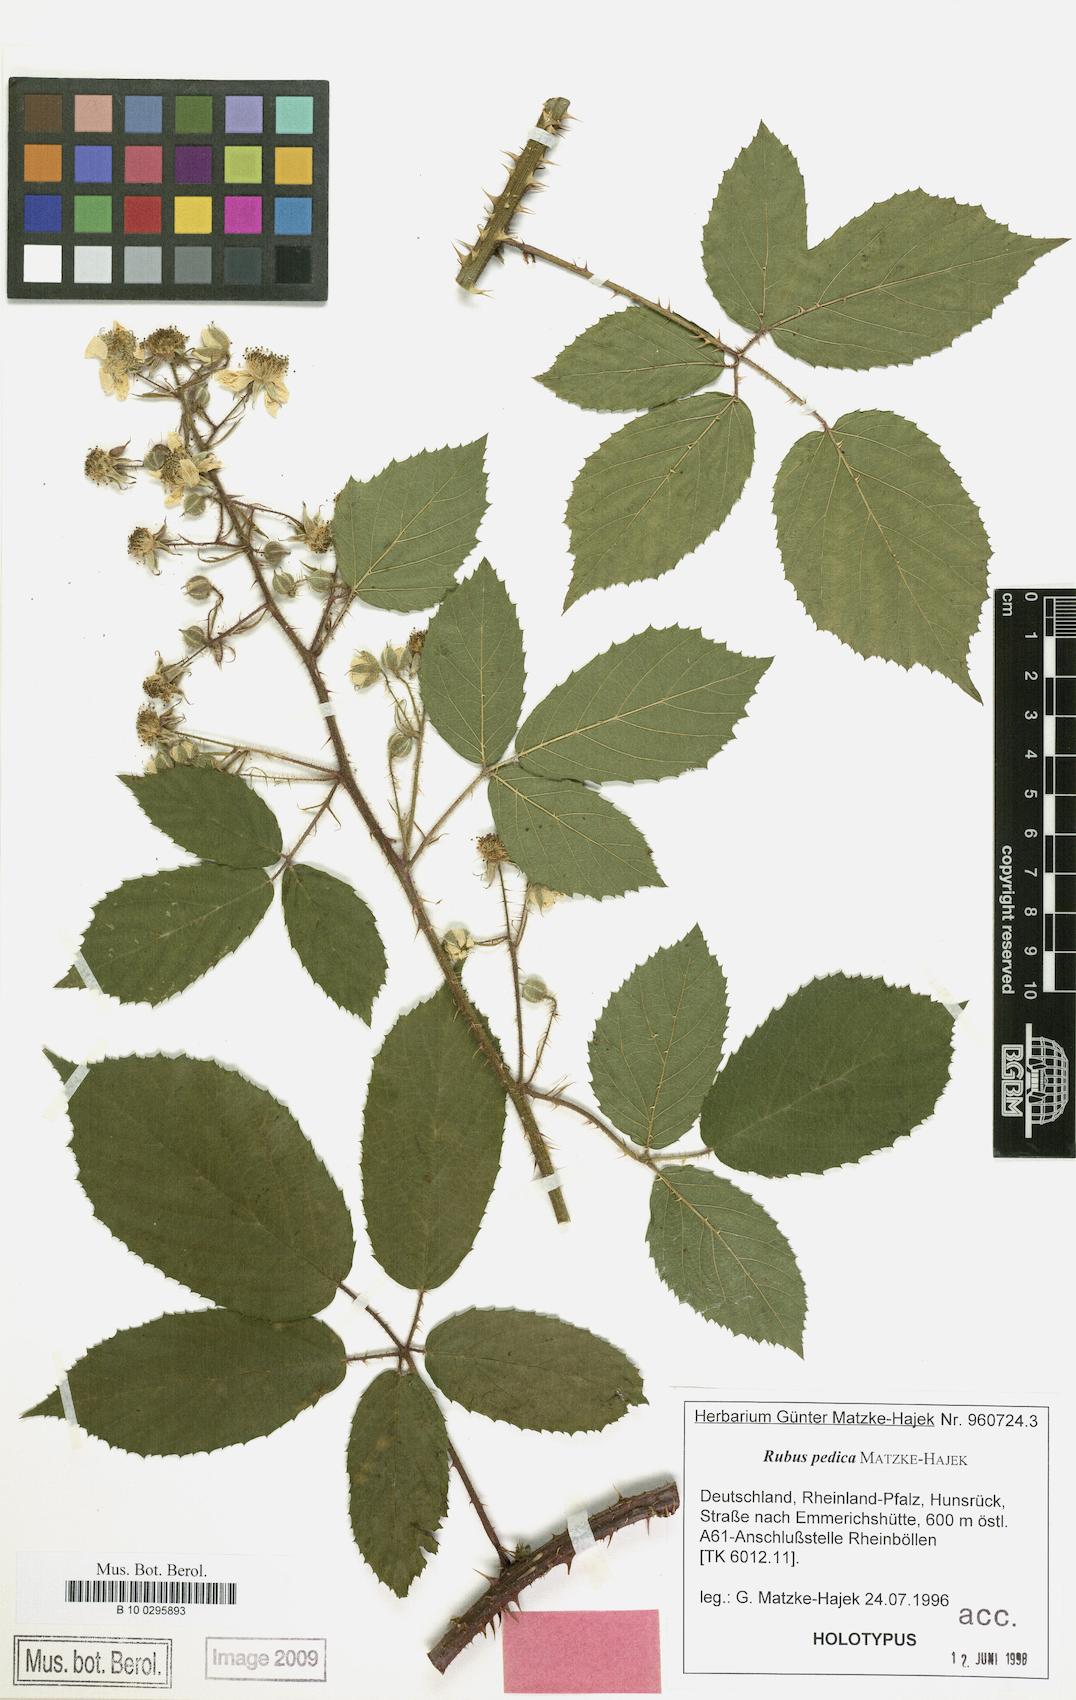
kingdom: Plantae
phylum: Tracheophyta
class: Magnoliopsida
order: Rosales
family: Rosaceae
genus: Rubus
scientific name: Rubus pedica
